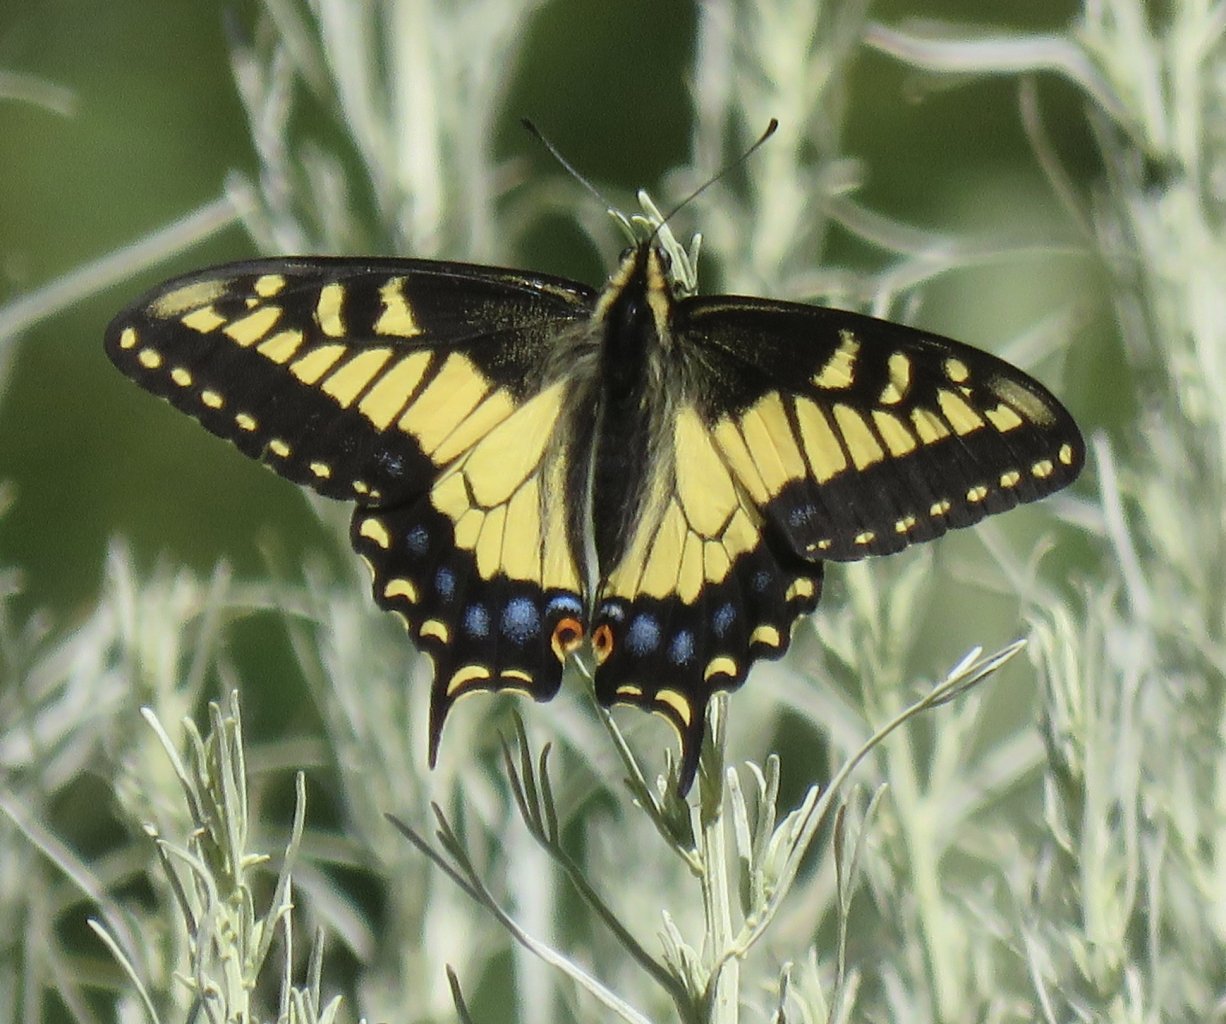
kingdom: Animalia
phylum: Arthropoda
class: Insecta
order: Lepidoptera
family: Papilionidae
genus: Papilio
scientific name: Papilio zelicaon
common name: Anise Swallowtail
